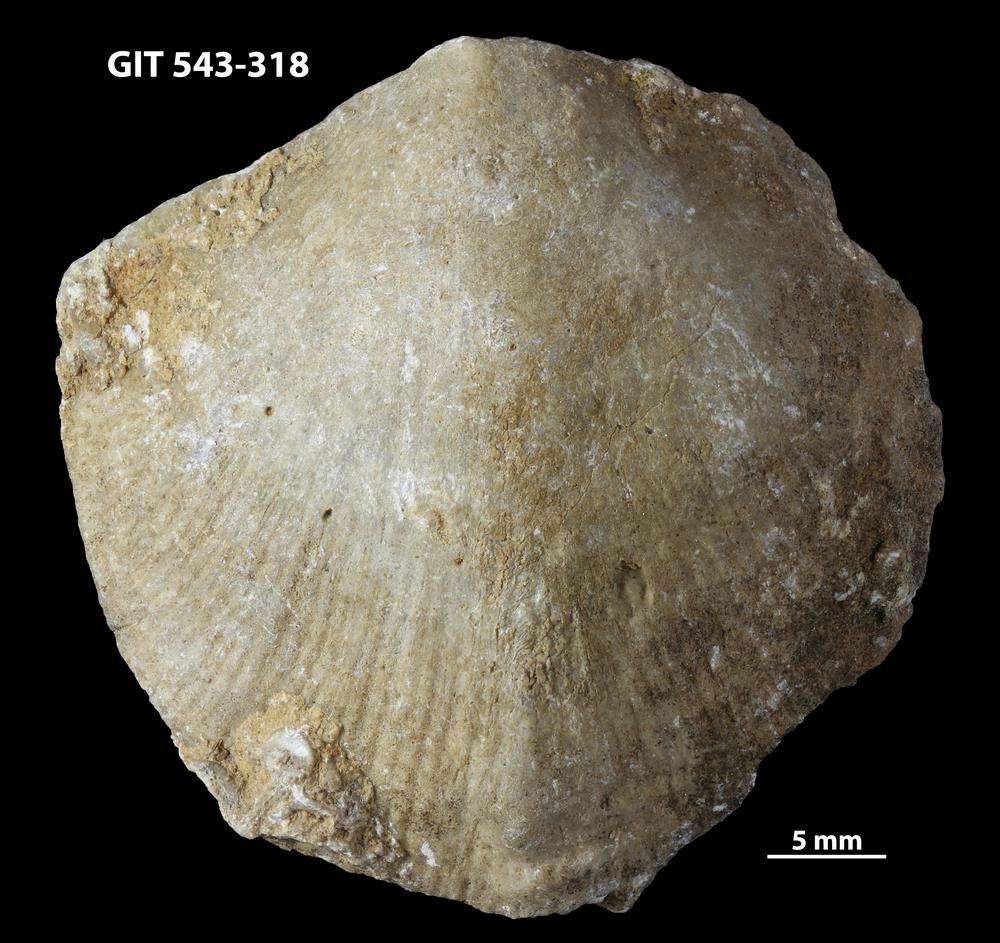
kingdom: Animalia
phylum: Brachiopoda
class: Rhynchonellata
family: Clitambonitidae
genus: Vellamo
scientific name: Vellamo Orthis verneuili
